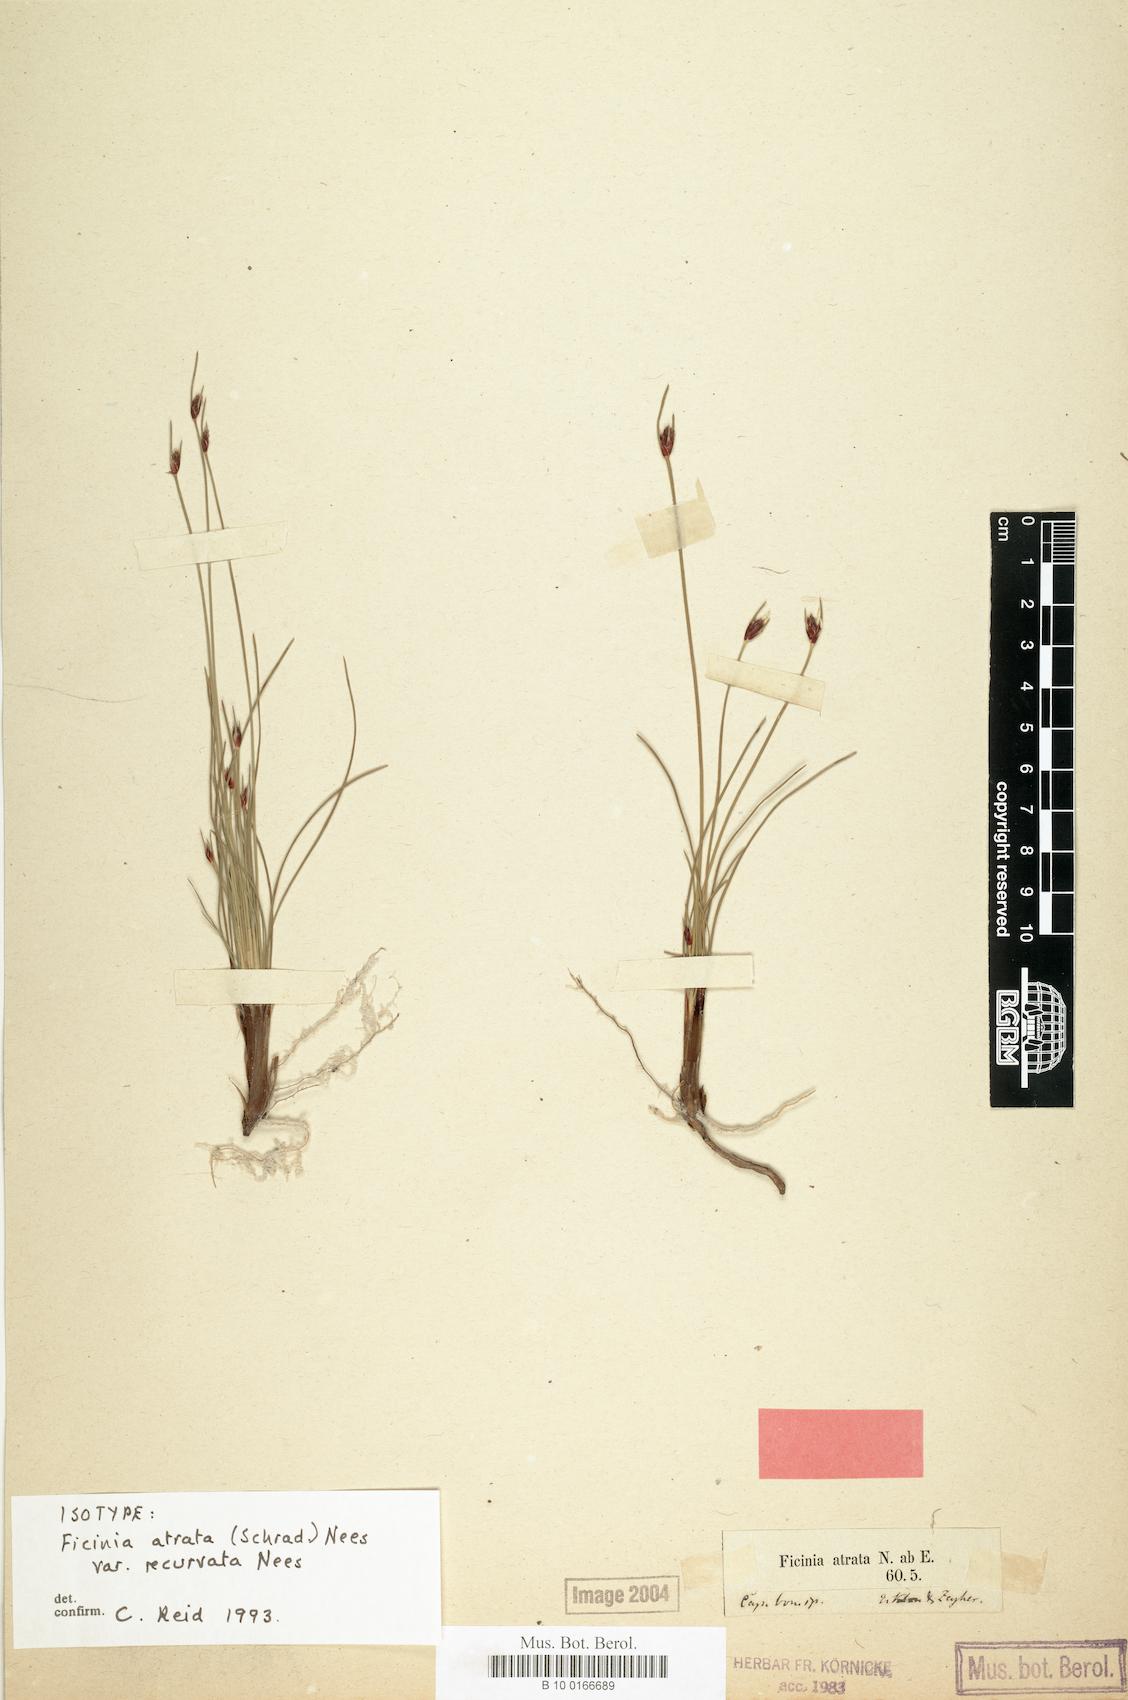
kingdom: Plantae
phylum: Tracheophyta
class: Liliopsida
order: Poales
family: Cyperaceae
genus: Ficinia
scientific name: Ficinia indica
